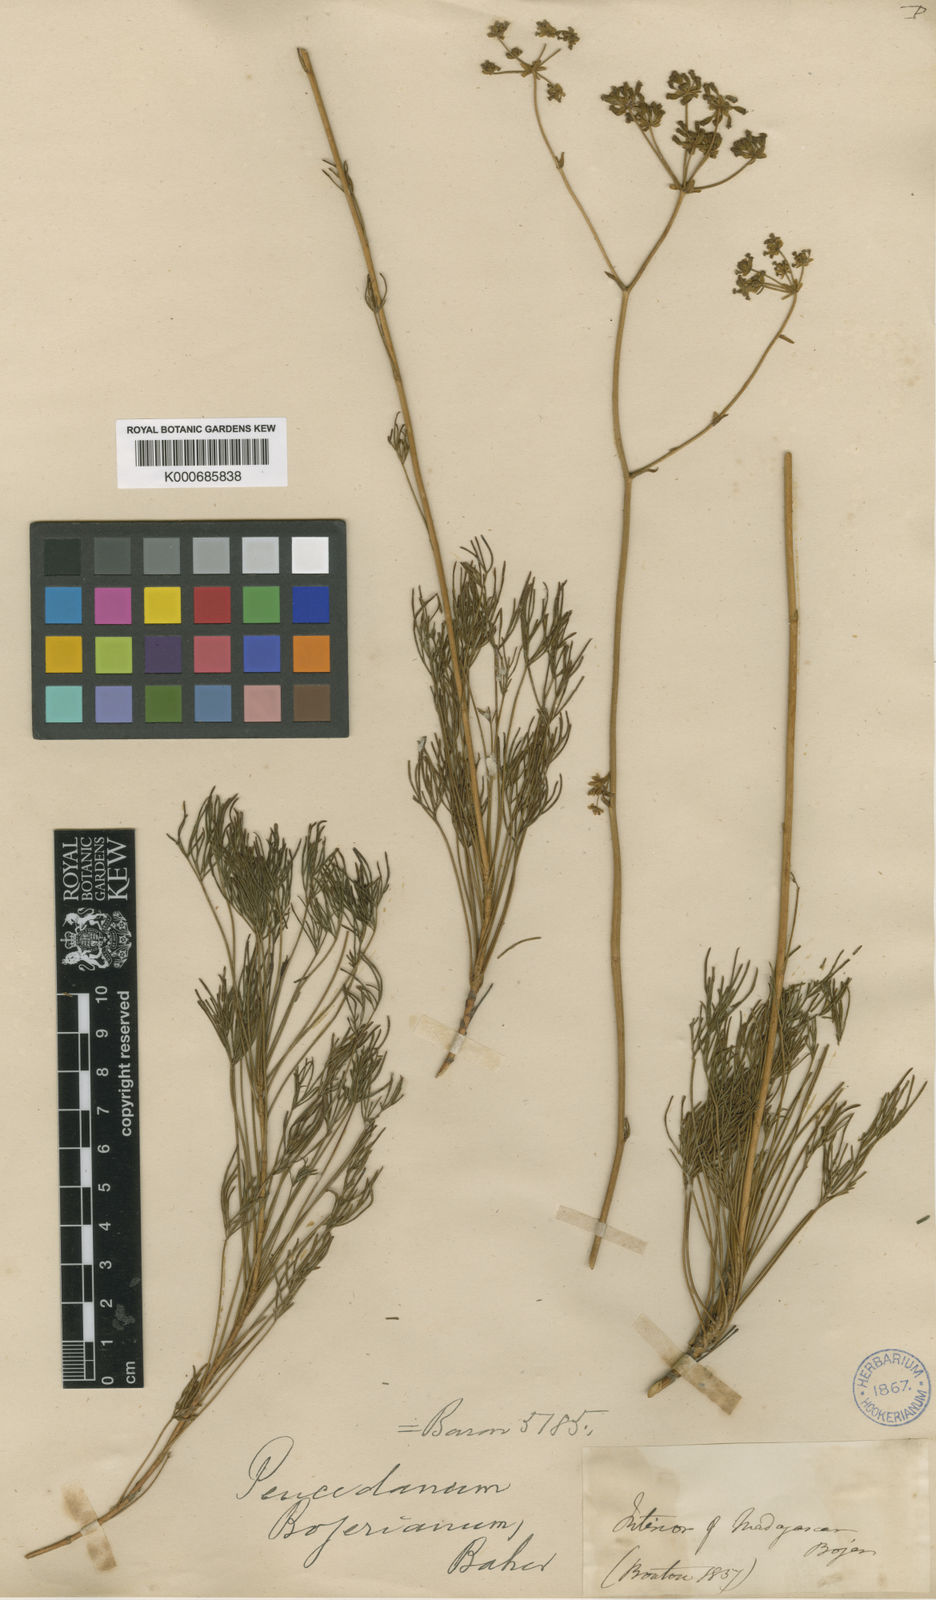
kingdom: Plantae
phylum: Tracheophyta
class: Magnoliopsida
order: Apiales
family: Apiaceae
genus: Tana
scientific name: Tana bojeriana
